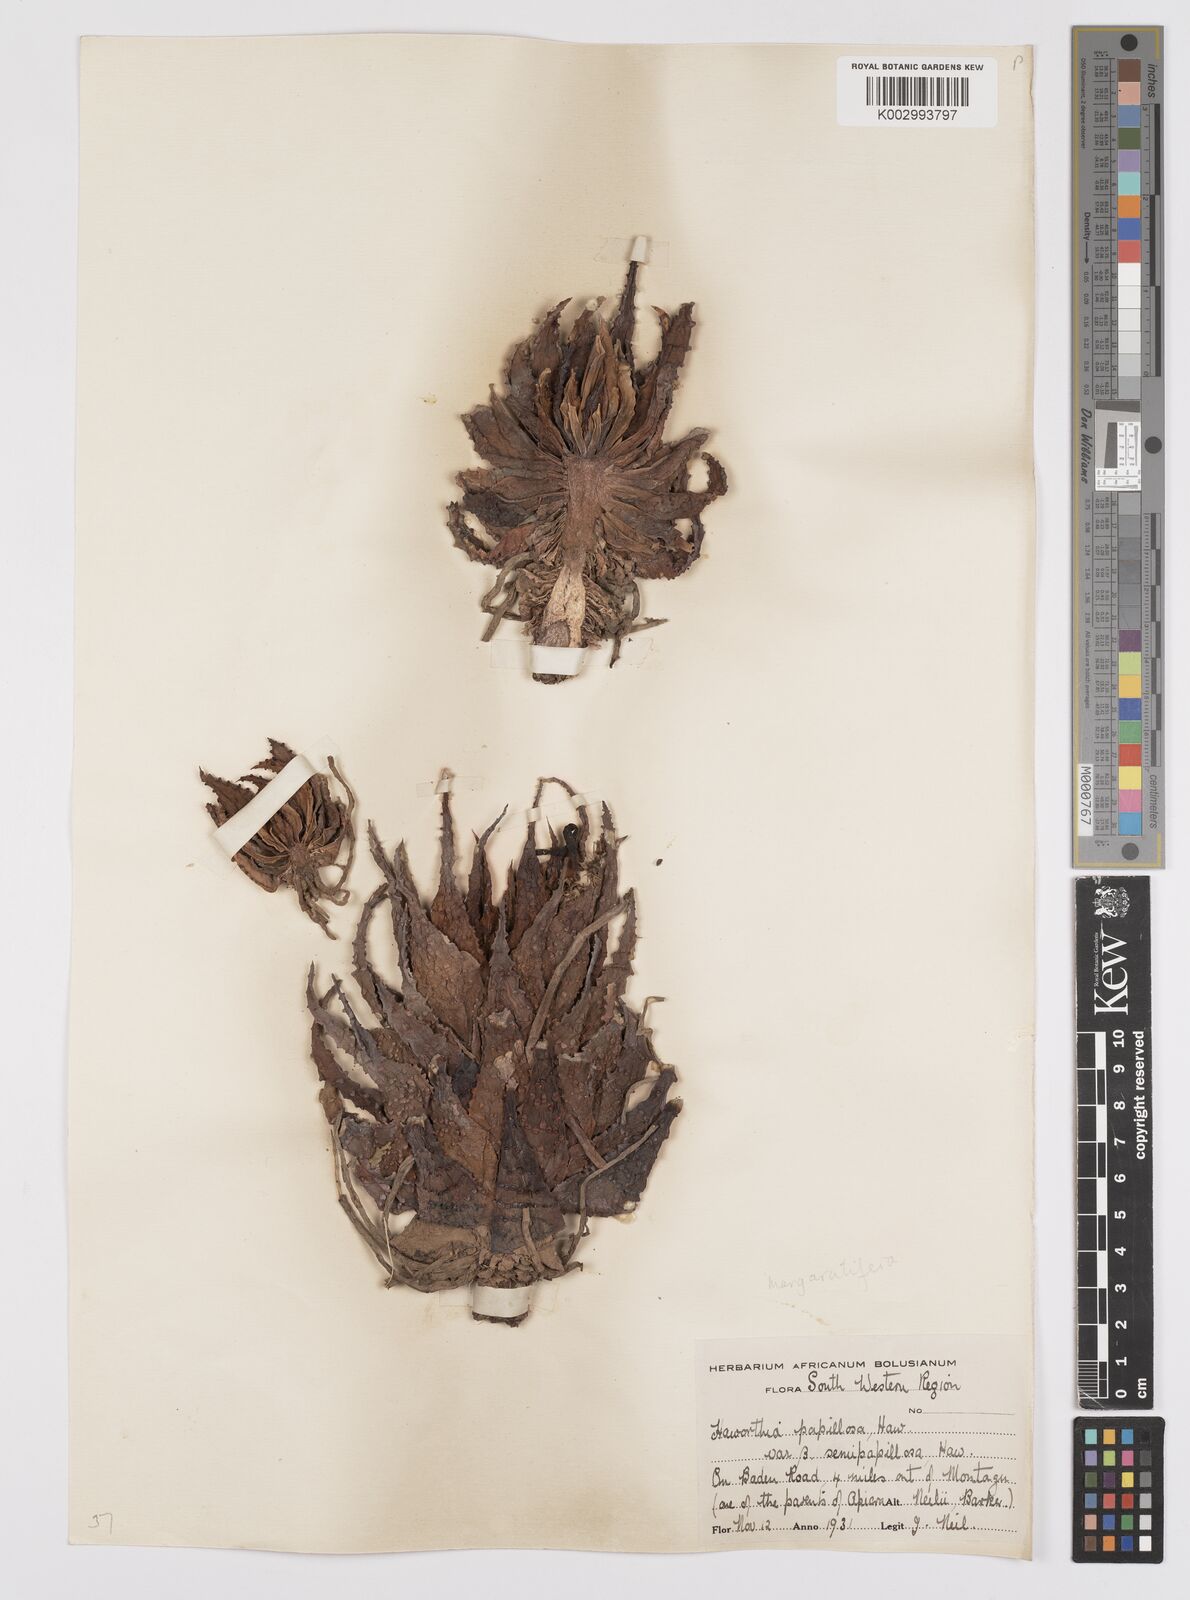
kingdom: Plantae
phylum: Tracheophyta
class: Liliopsida
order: Asparagales
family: Asphodelaceae
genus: Haworthia
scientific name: Haworthia herbacea
